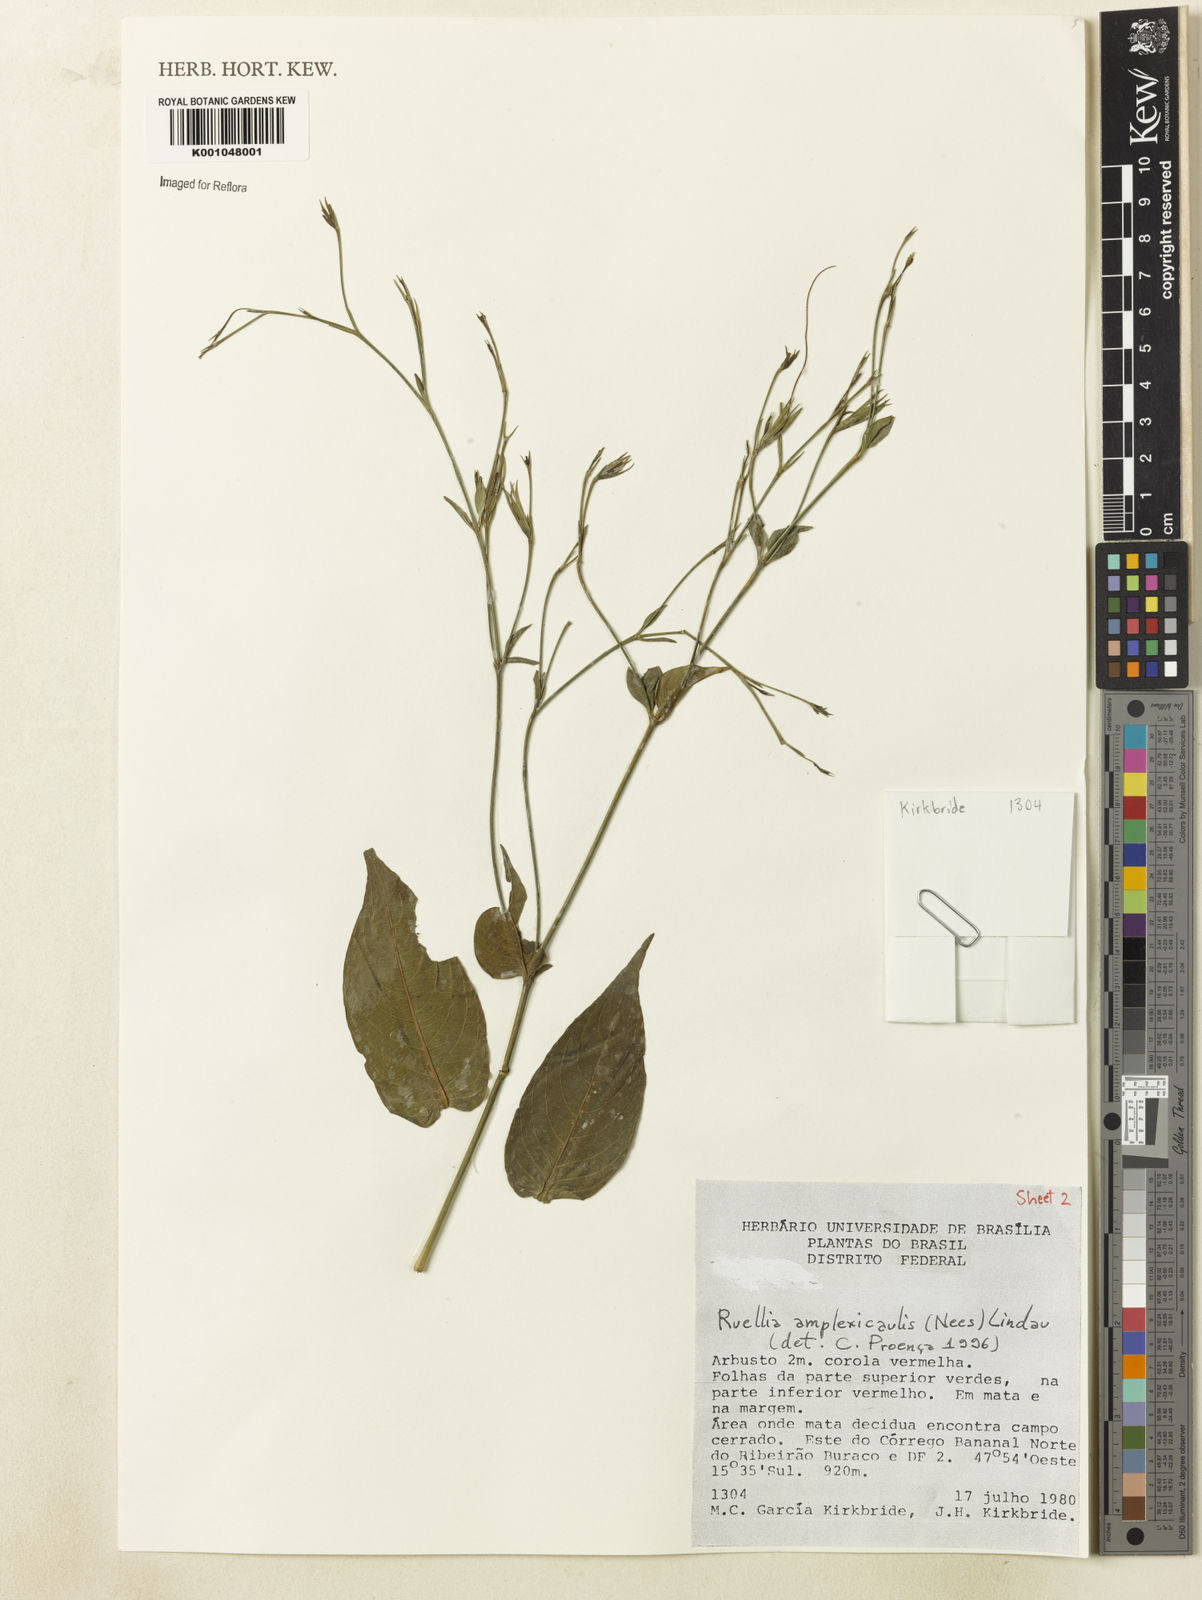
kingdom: Plantae
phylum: Tracheophyta
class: Magnoliopsida
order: Lamiales
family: Acanthaceae
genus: Ruellia
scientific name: Ruellia amplexicaulis
